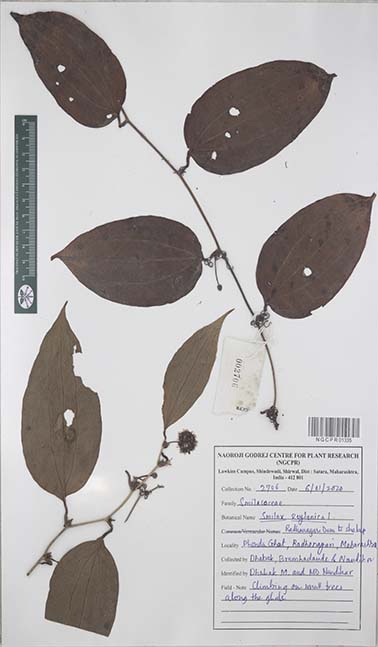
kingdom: Plantae
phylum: Tracheophyta
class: Liliopsida
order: Liliales
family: Smilacaceae
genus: Smilax
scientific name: Smilax zeylanica
